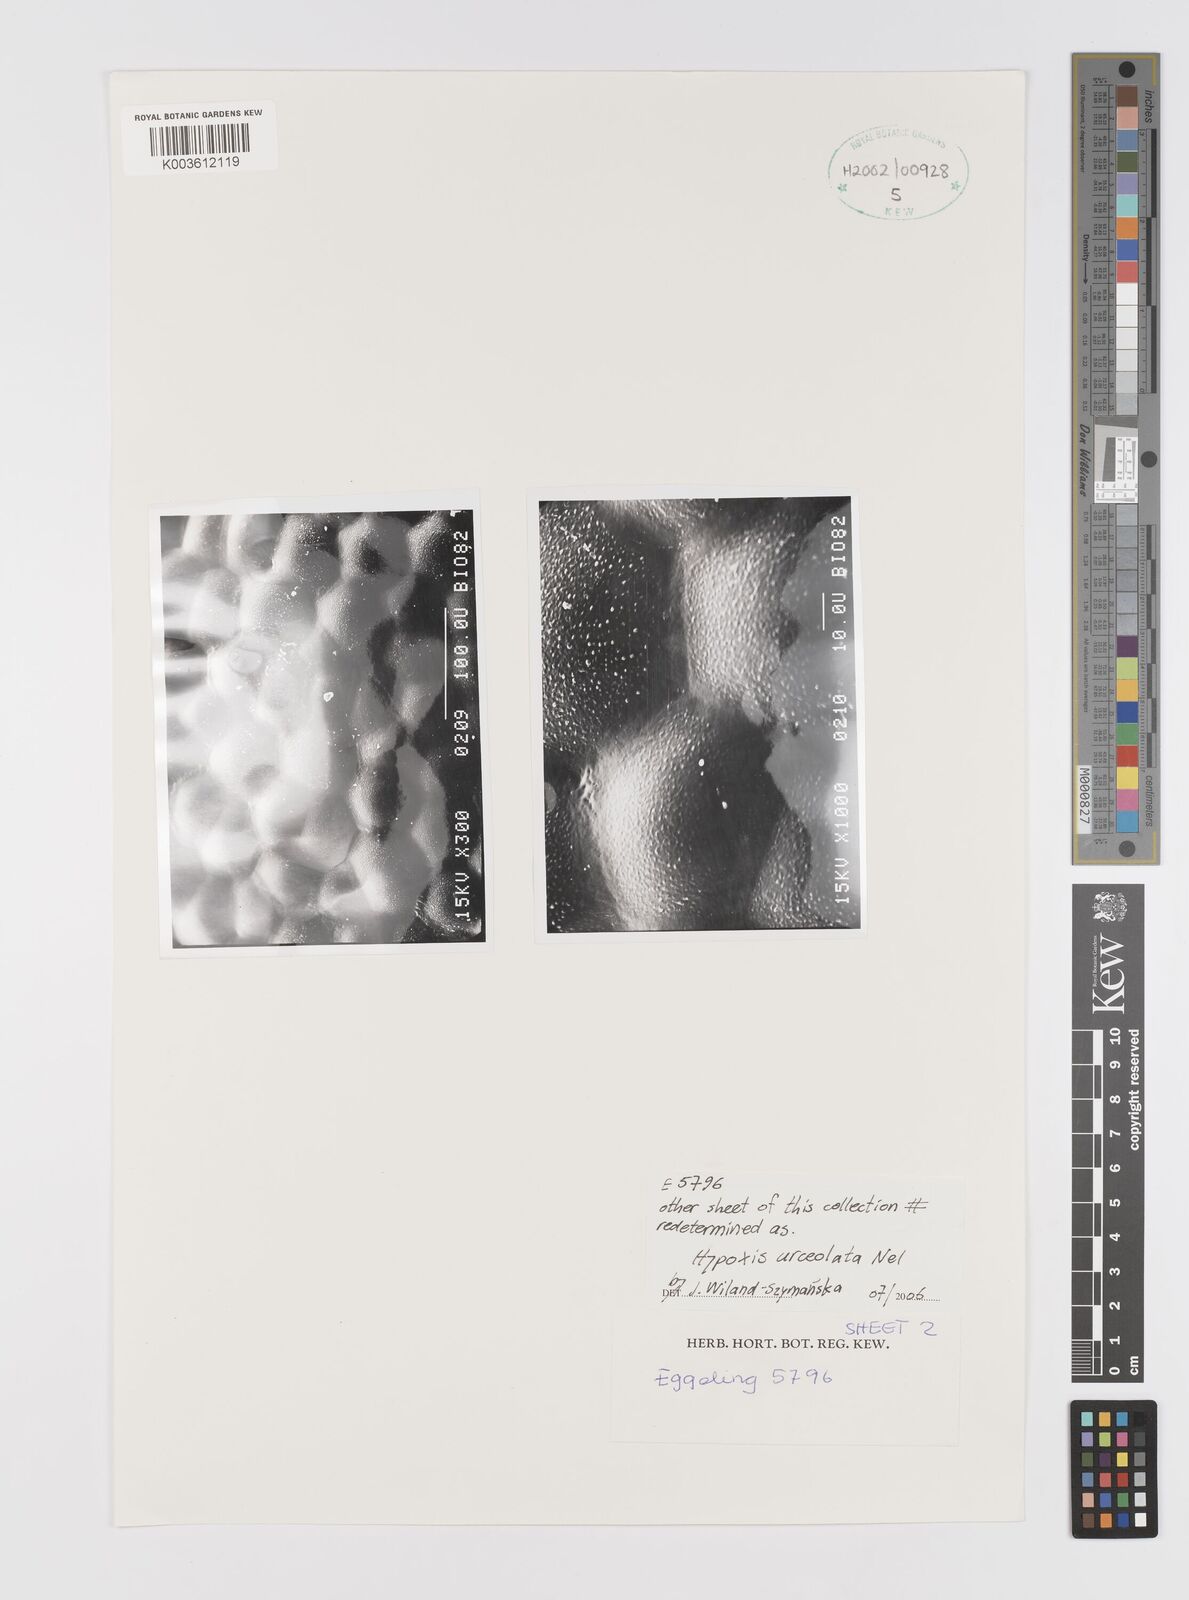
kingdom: Plantae
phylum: Tracheophyta
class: Liliopsida
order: Asparagales
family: Hypoxidaceae
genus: Hypoxis
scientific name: Hypoxis urceolata
